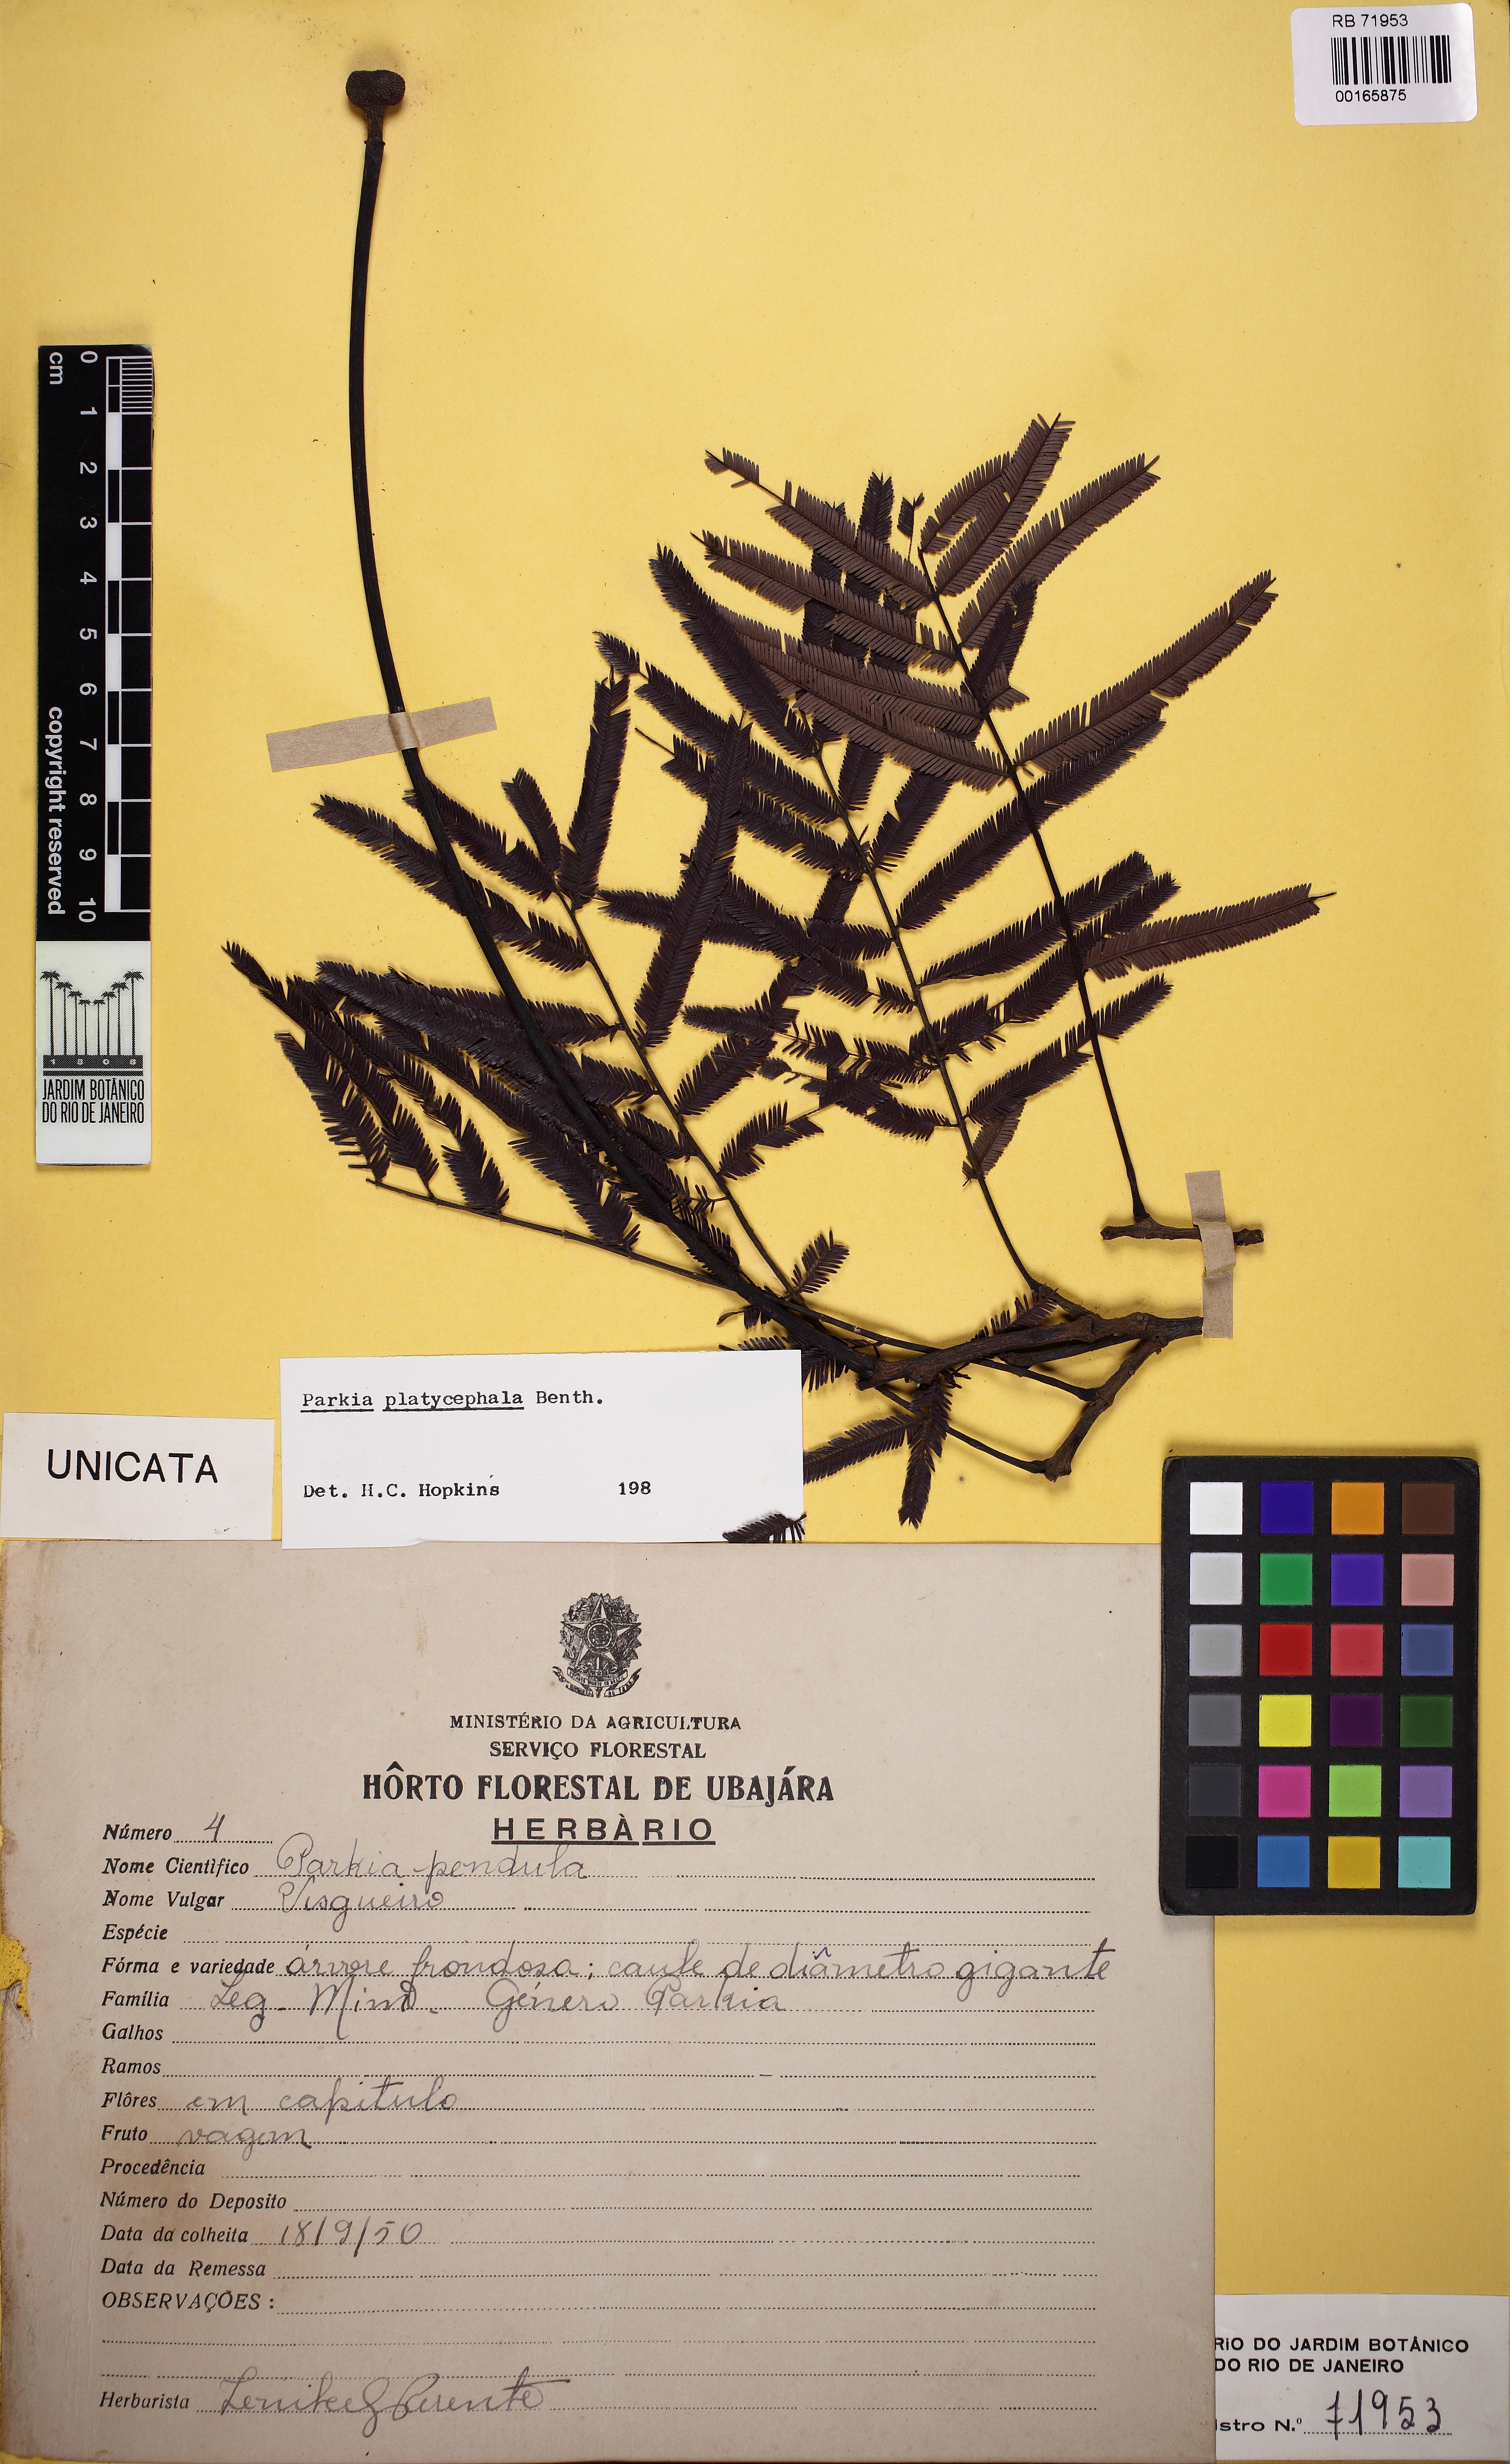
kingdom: Plantae
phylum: Tracheophyta
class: Magnoliopsida
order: Fabales
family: Fabaceae
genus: Parkia
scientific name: Parkia platycephala
